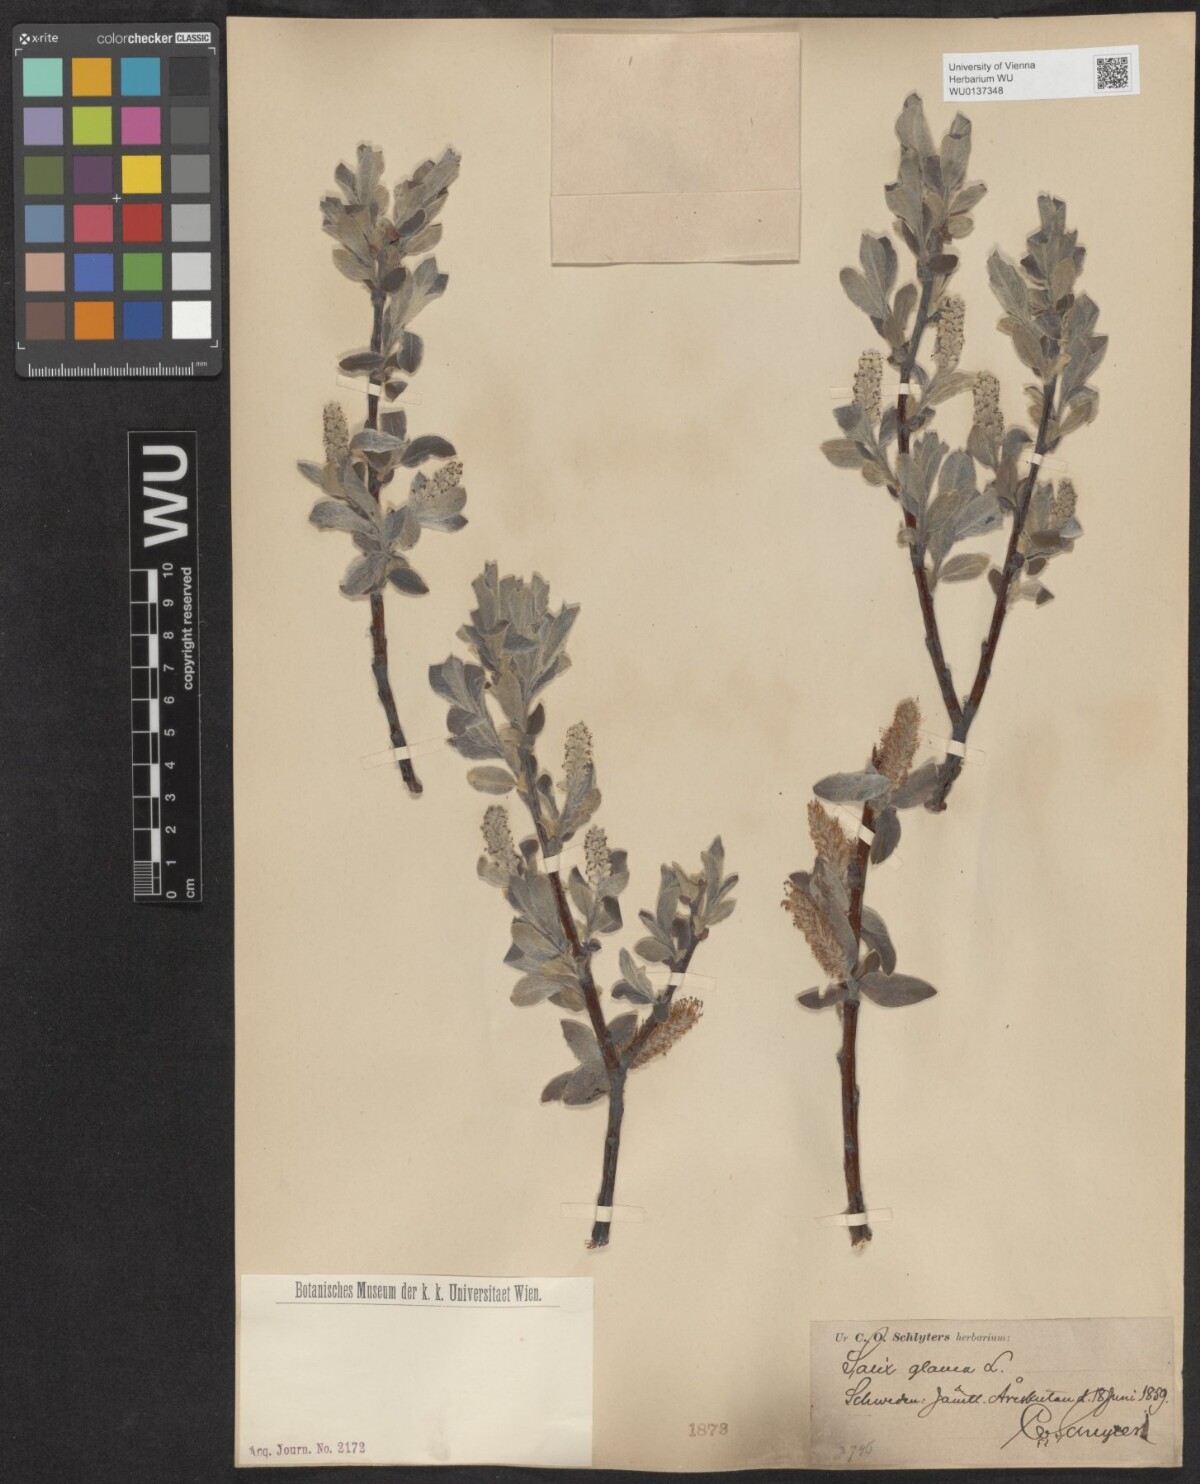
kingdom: Plantae
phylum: Tracheophyta
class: Magnoliopsida
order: Malpighiales
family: Salicaceae
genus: Salix
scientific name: Salix glauca
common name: Glaucous willow
